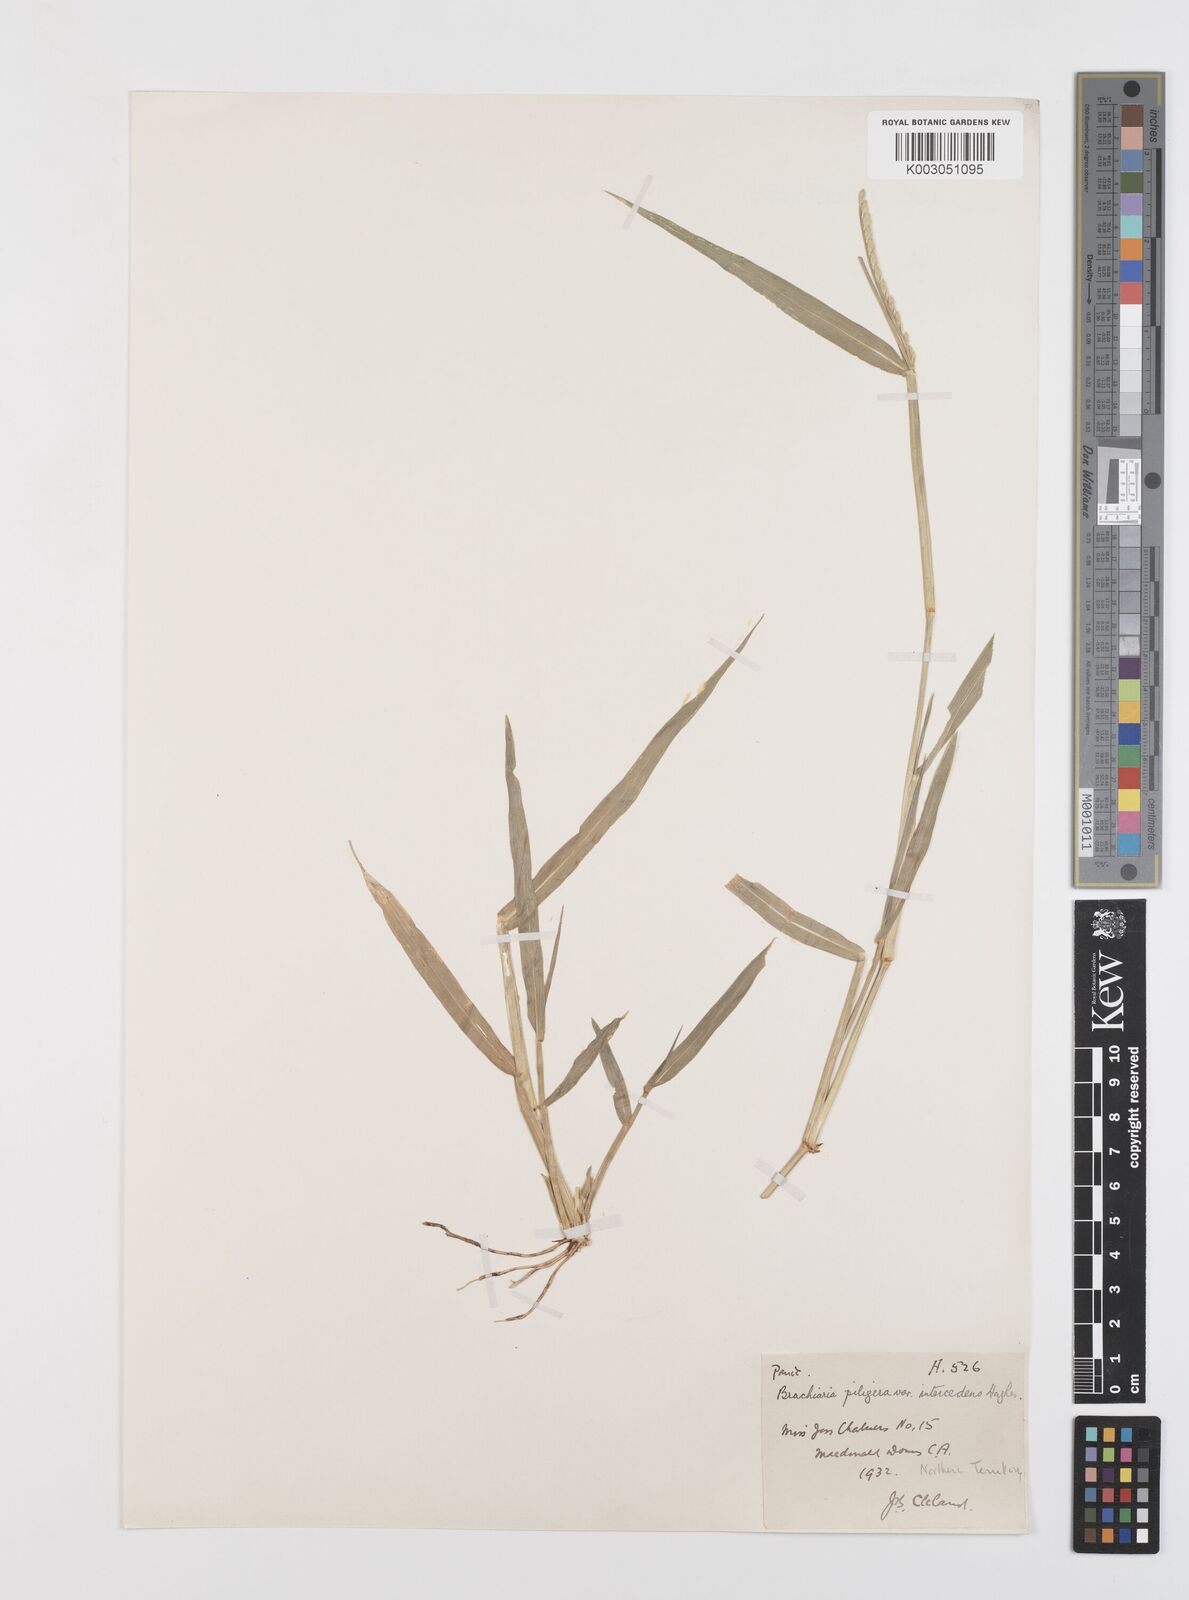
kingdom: Plantae
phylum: Tracheophyta
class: Liliopsida
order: Poales
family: Poaceae
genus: Urochloa
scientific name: Urochloa piligera
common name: Wattle signalgrass
